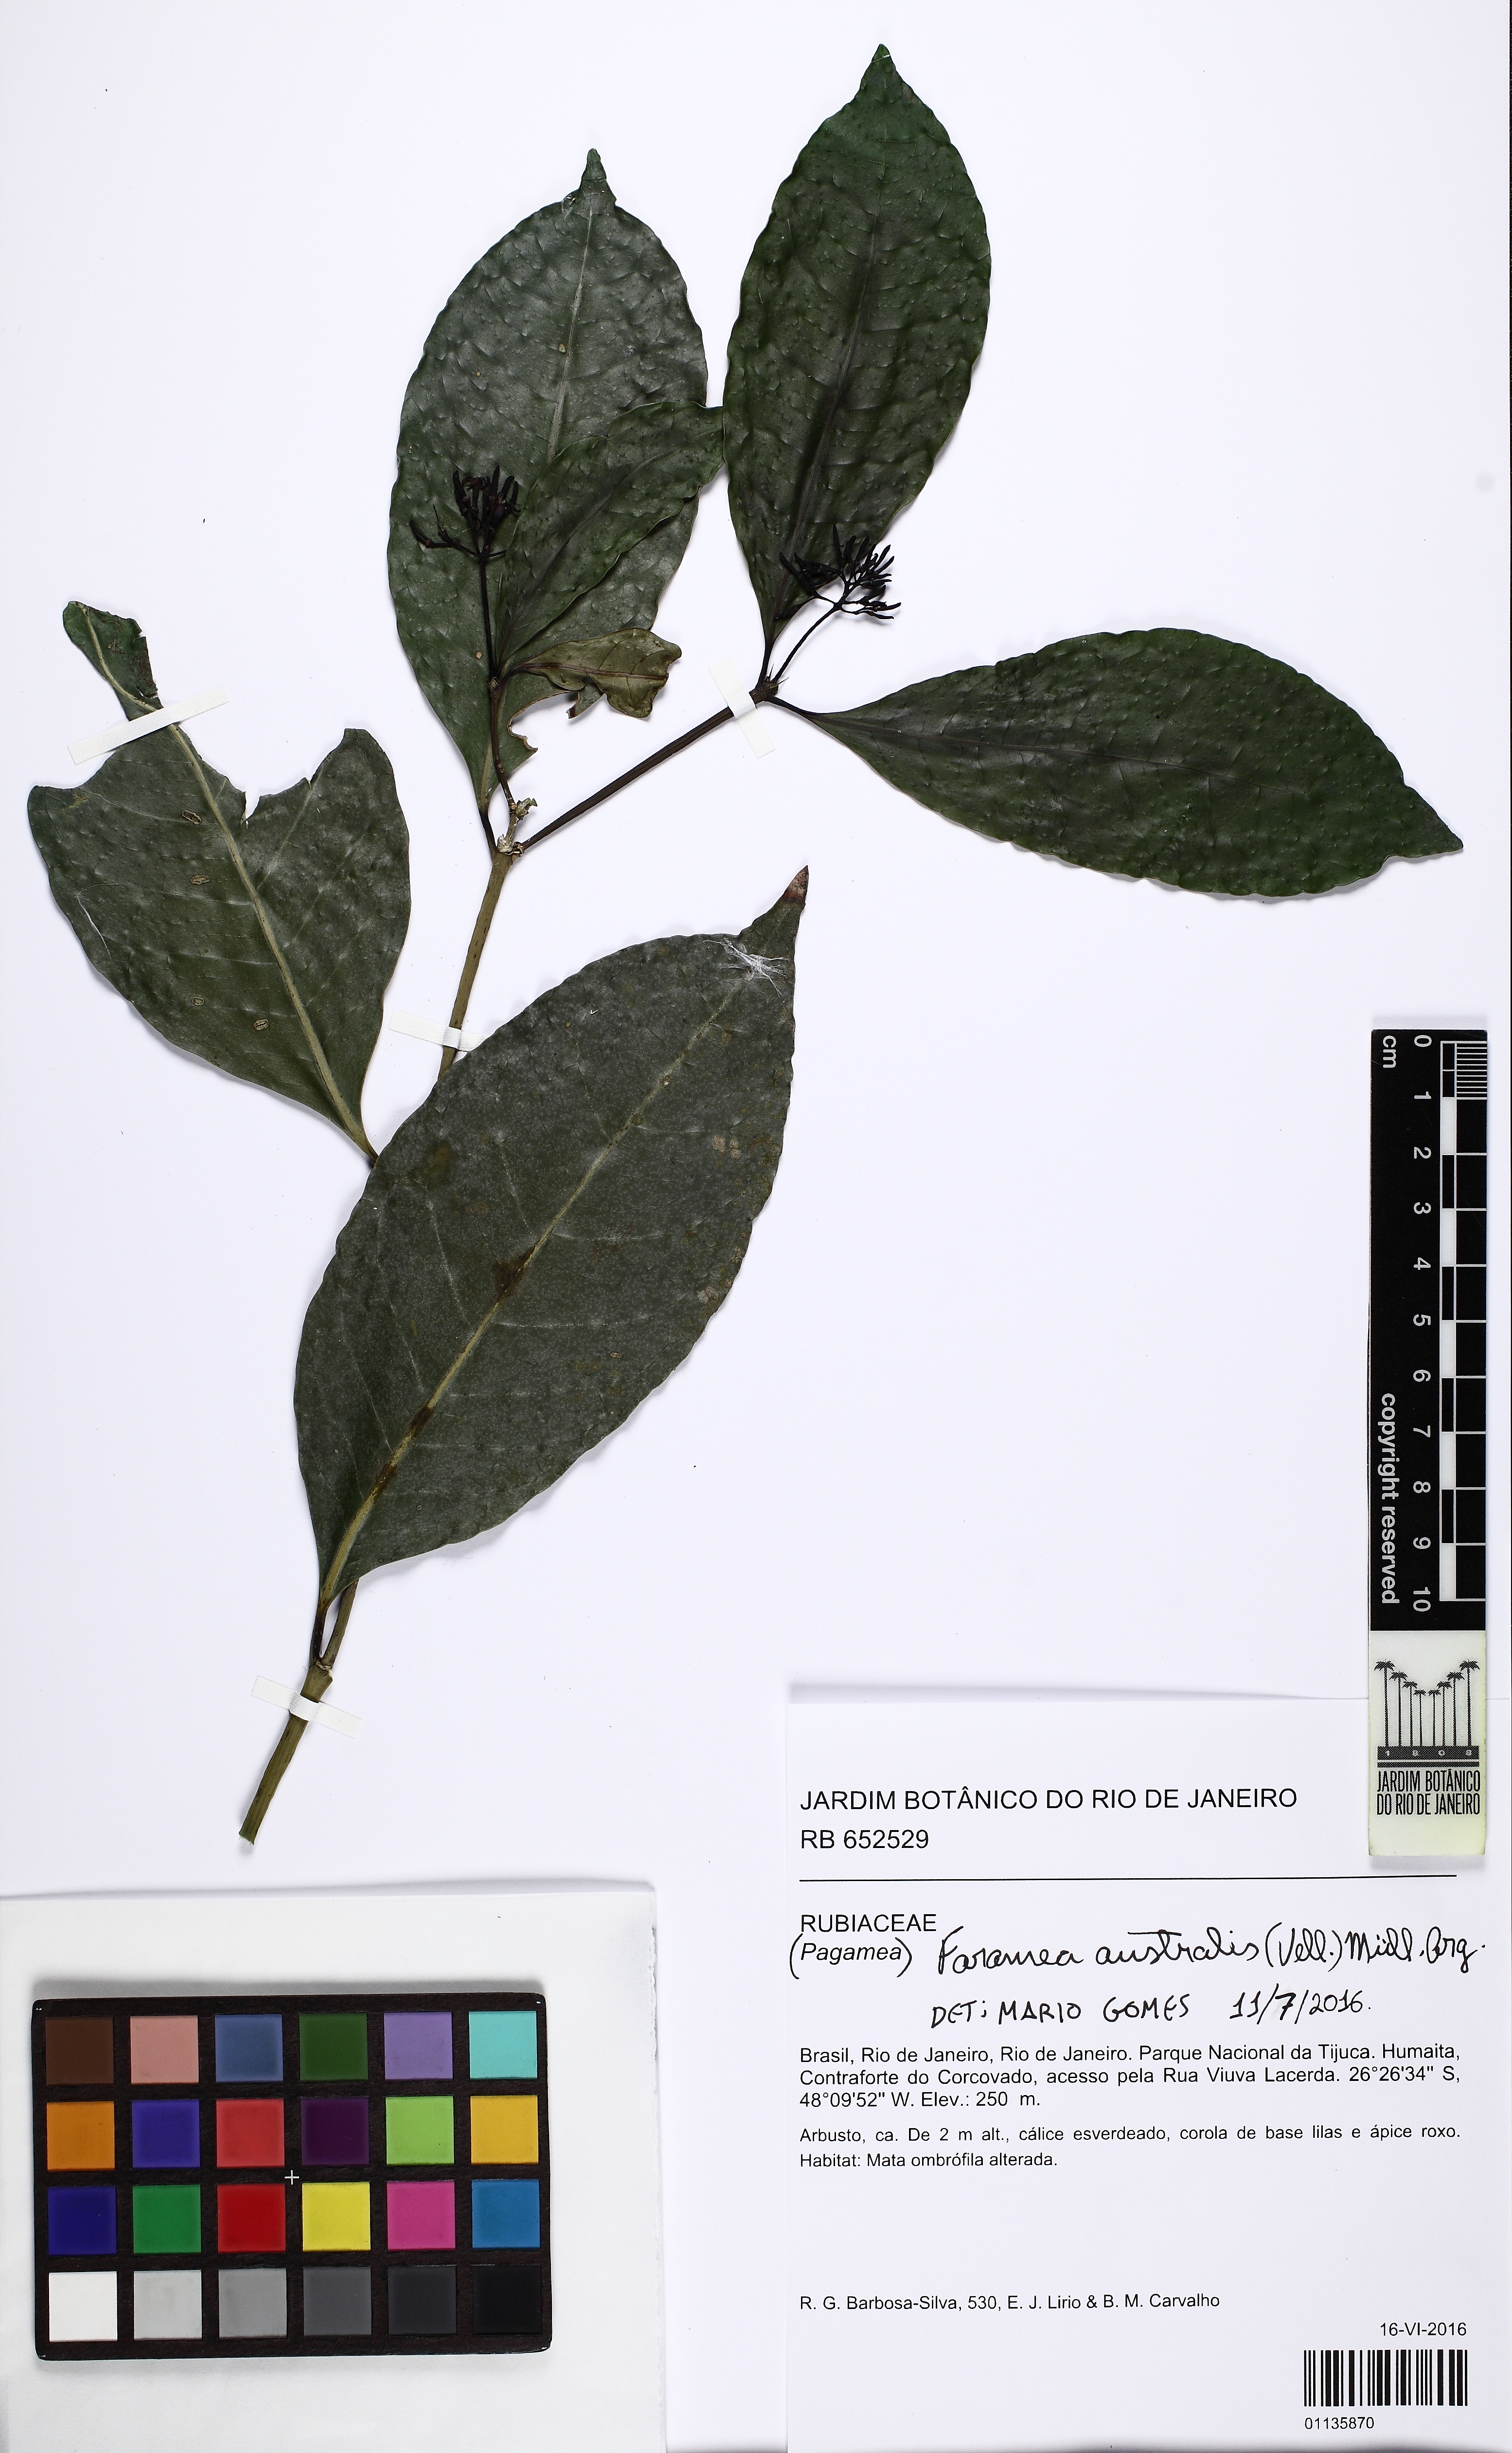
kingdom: Plantae
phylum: Tracheophyta
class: Magnoliopsida
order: Gentianales
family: Rubiaceae
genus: Faramea
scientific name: Faramea tenuiflora
